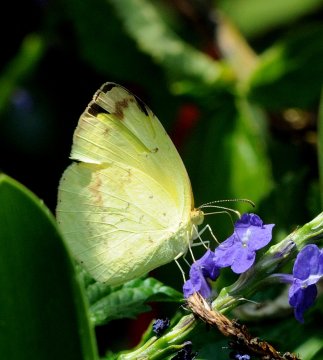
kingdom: Animalia
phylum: Arthropoda
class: Insecta
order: Lepidoptera
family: Pieridae
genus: Eurema
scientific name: Eurema desjardinsii
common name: Angled Grass Yellow
